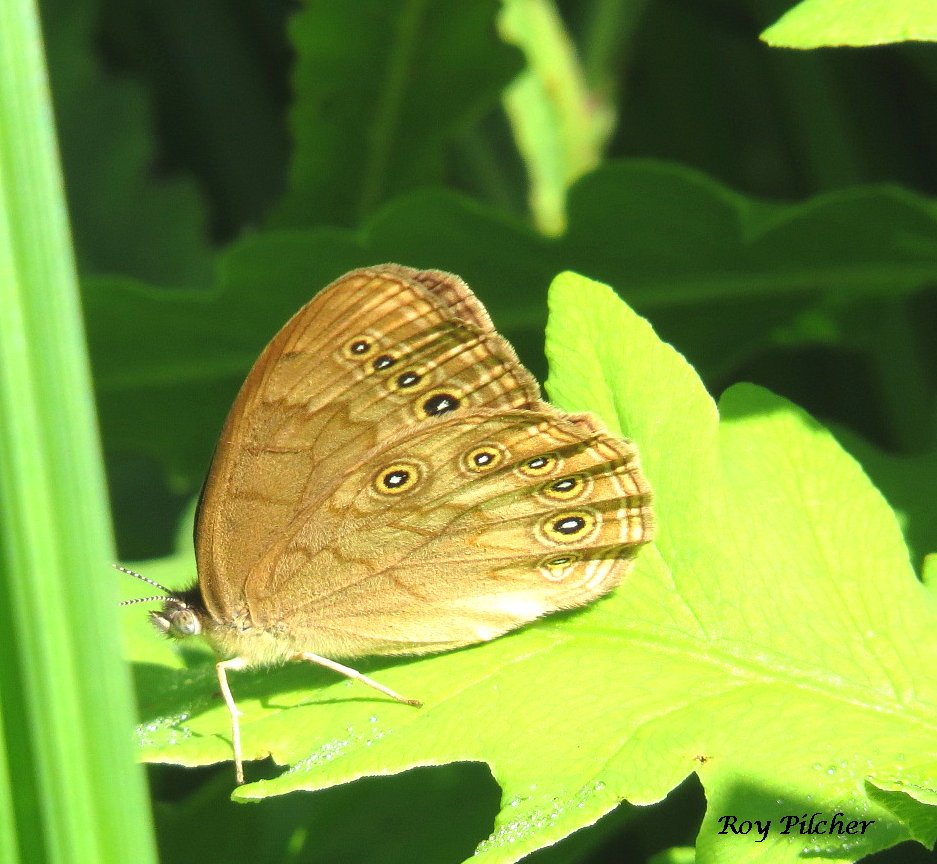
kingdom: Animalia
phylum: Arthropoda
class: Insecta
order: Lepidoptera
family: Nymphalidae
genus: Lethe
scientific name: Lethe eurydice
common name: Eyed Brown
